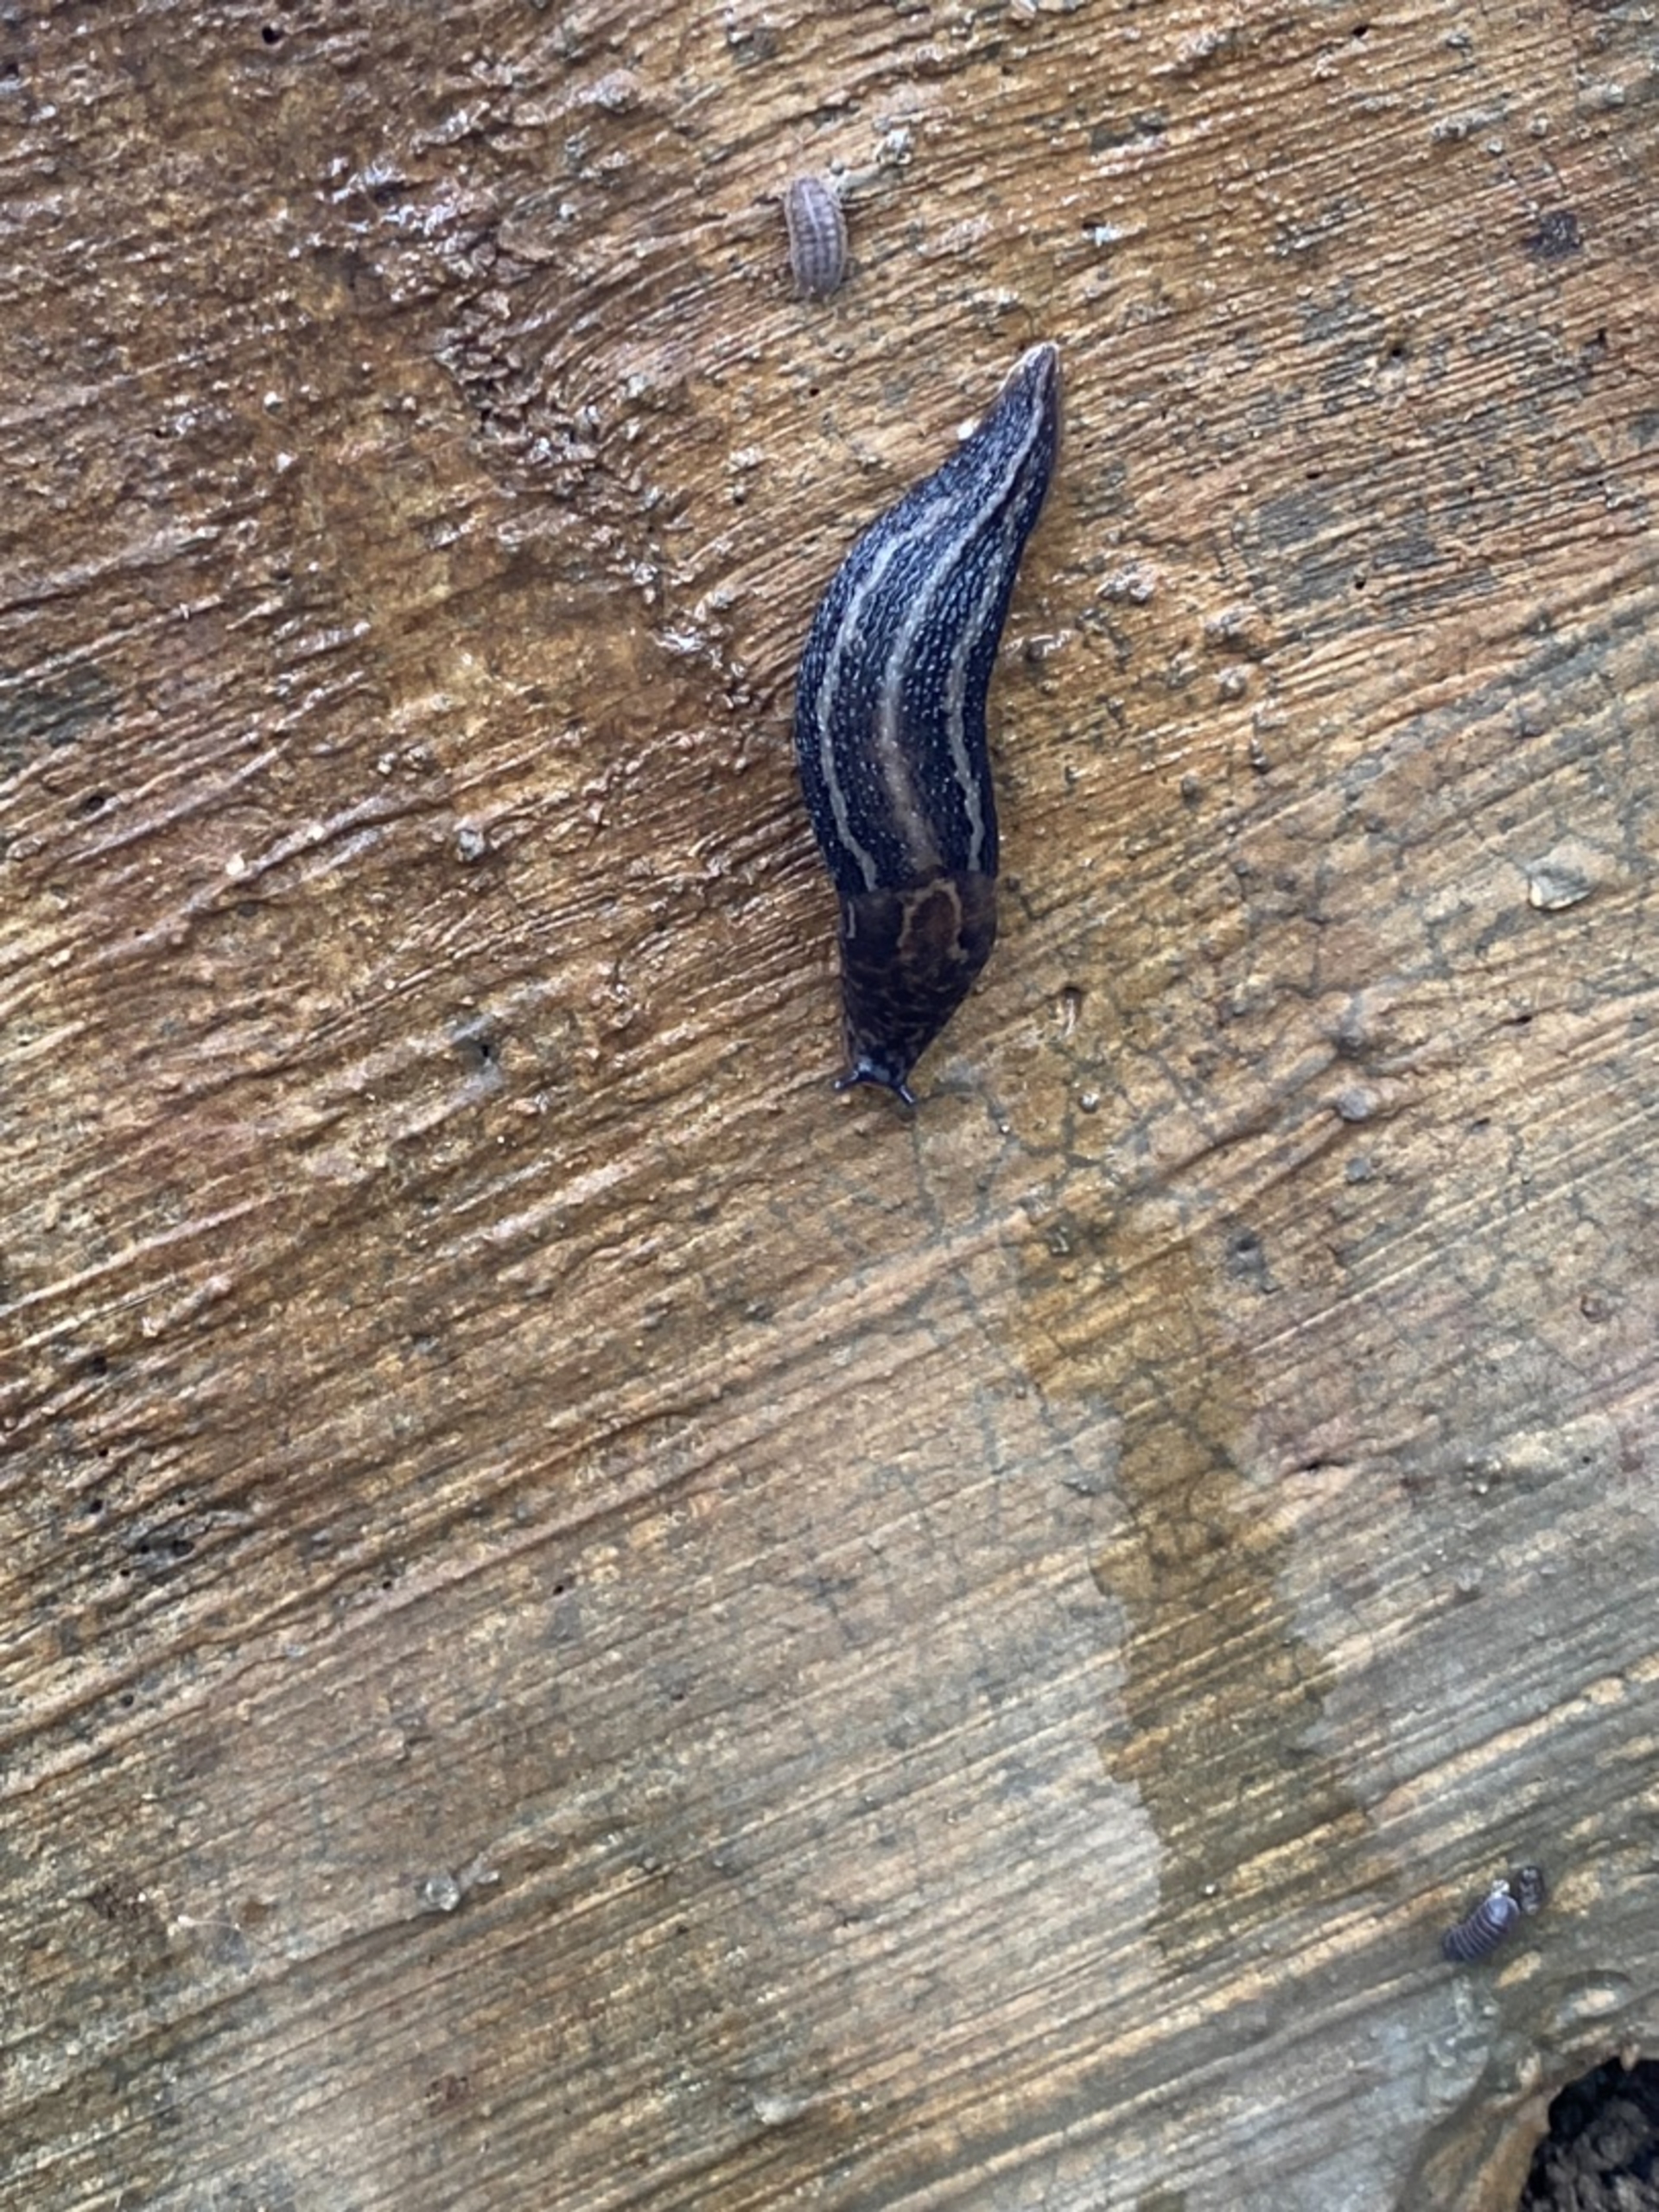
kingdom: Animalia
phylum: Mollusca
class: Gastropoda
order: Stylommatophora
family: Limacidae
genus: Limax
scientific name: Limax maximus
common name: Pantersnegl
